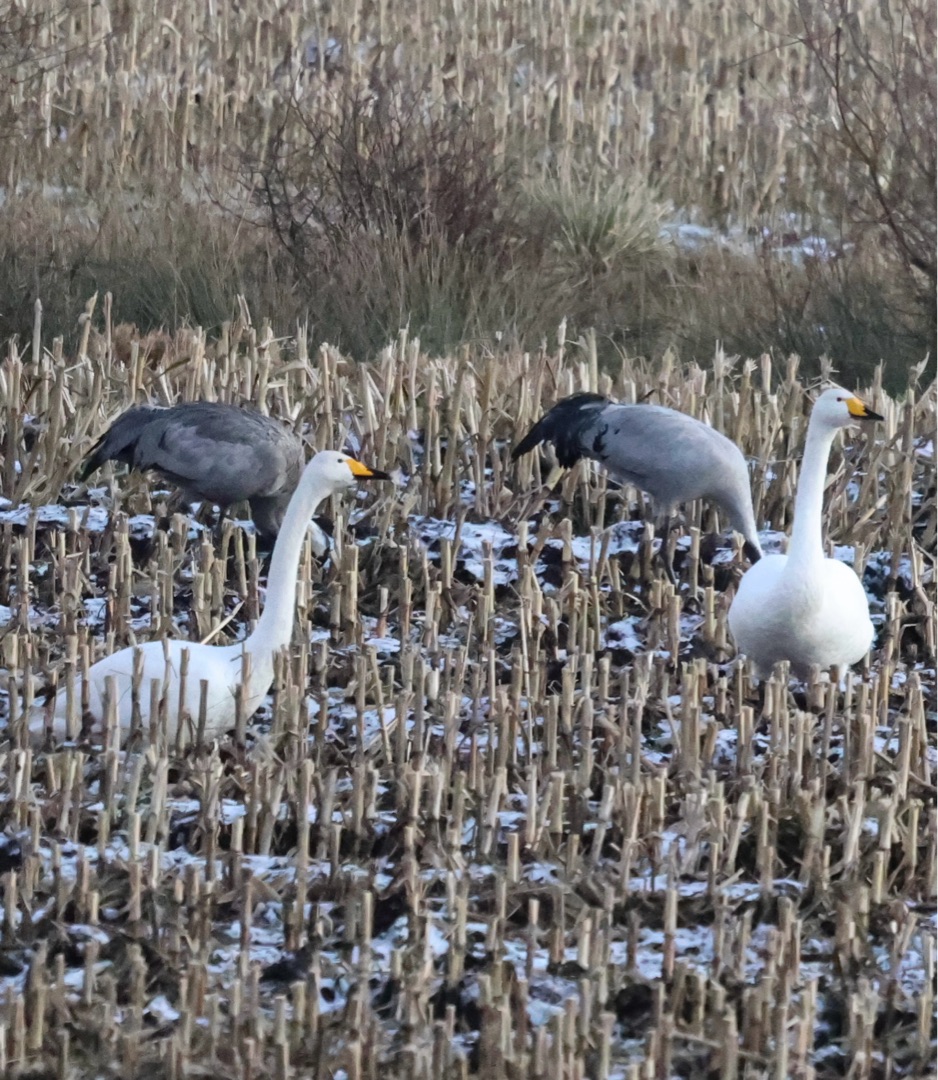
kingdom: Animalia
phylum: Chordata
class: Aves
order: Anseriformes
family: Anatidae
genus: Cygnus
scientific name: Cygnus cygnus
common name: Sangsvane
